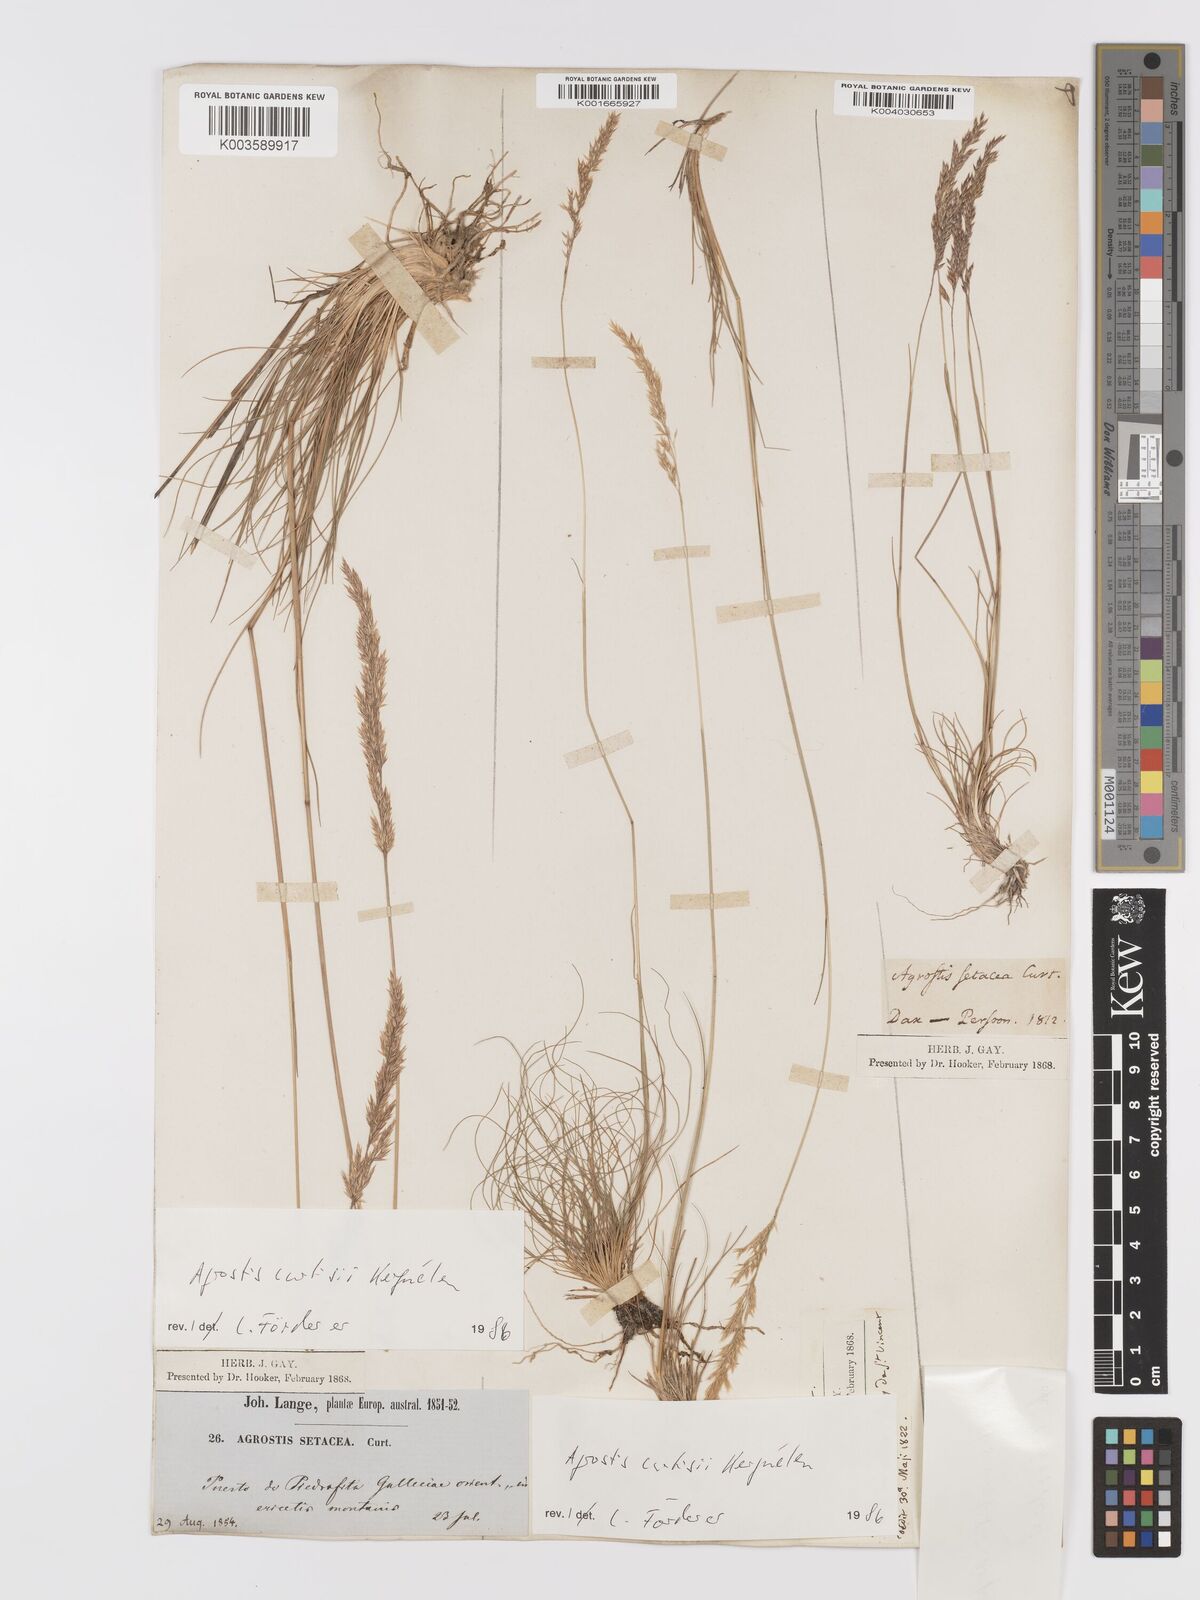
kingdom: Plantae
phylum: Tracheophyta
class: Liliopsida
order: Poales
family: Poaceae
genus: Alpagrostis
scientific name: Alpagrostis setacea
